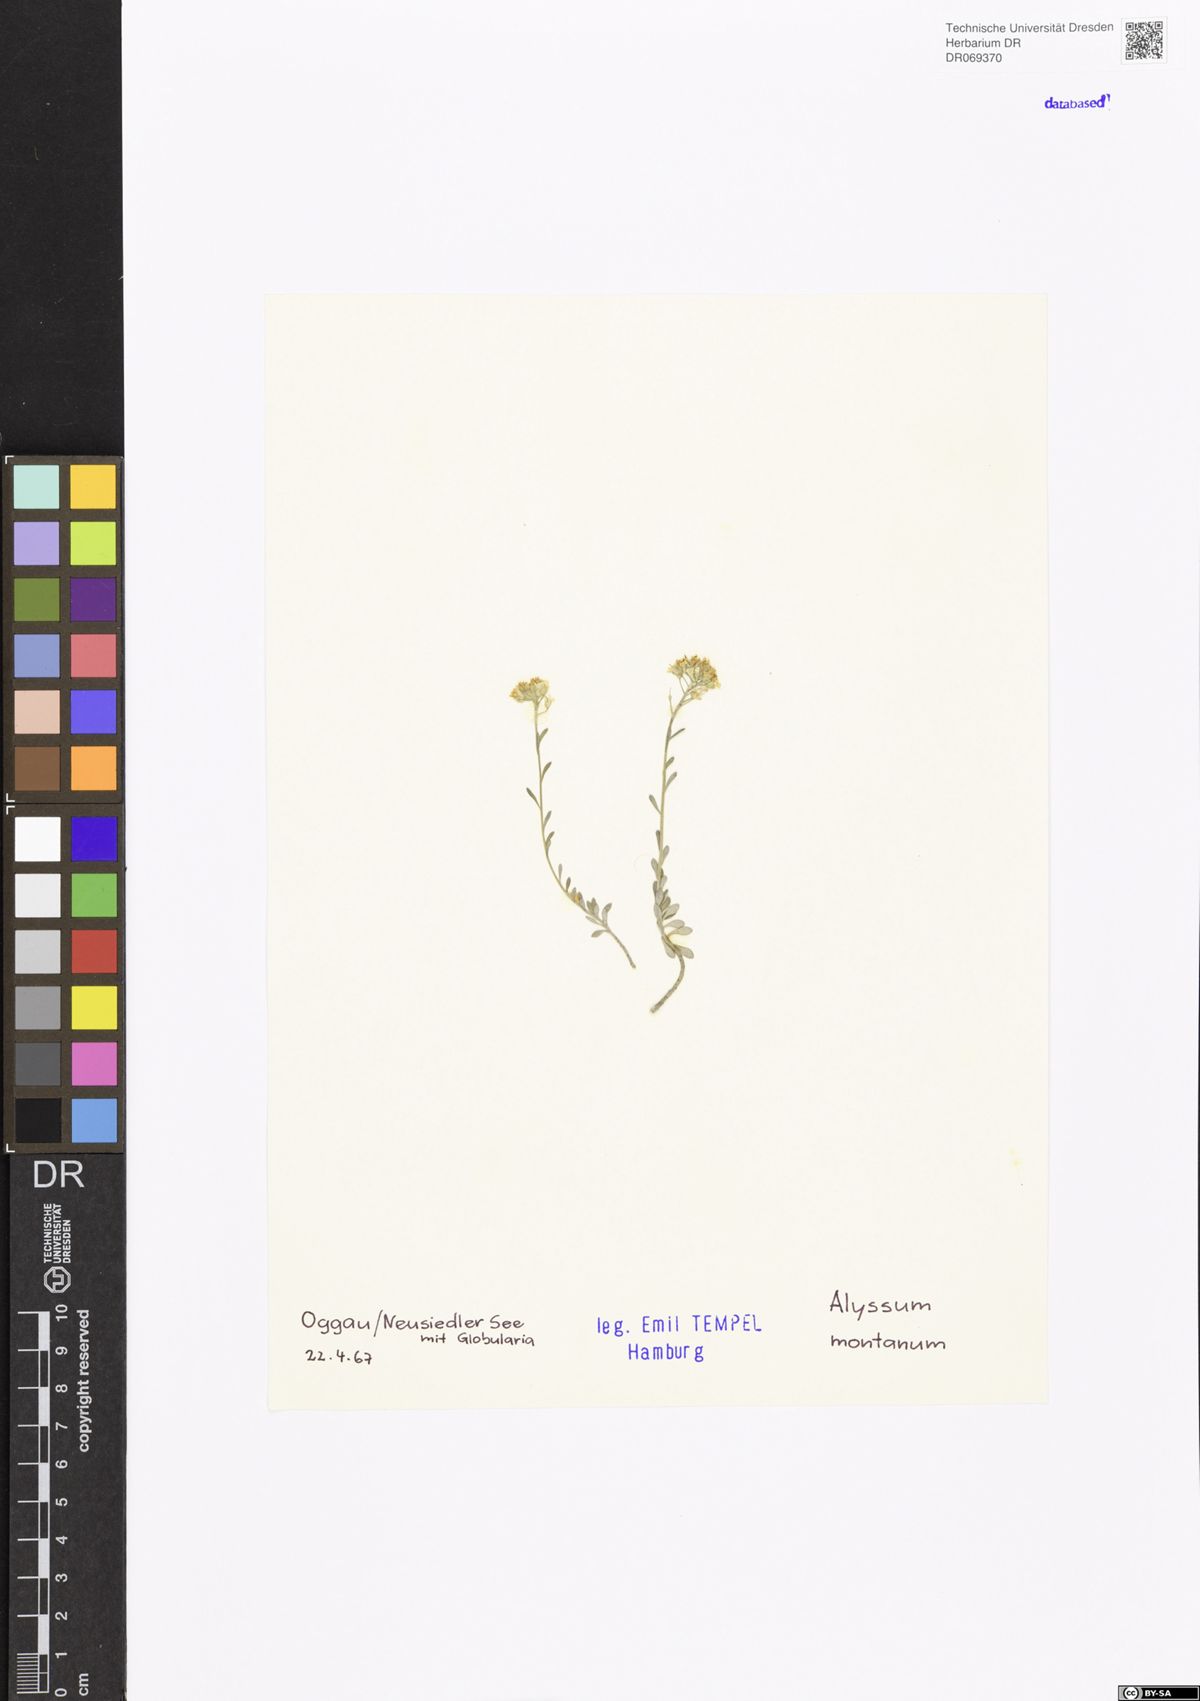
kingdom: Plantae
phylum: Tracheophyta
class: Magnoliopsida
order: Brassicales
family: Brassicaceae
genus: Alyssum
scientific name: Alyssum montanum
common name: Mountain alison
